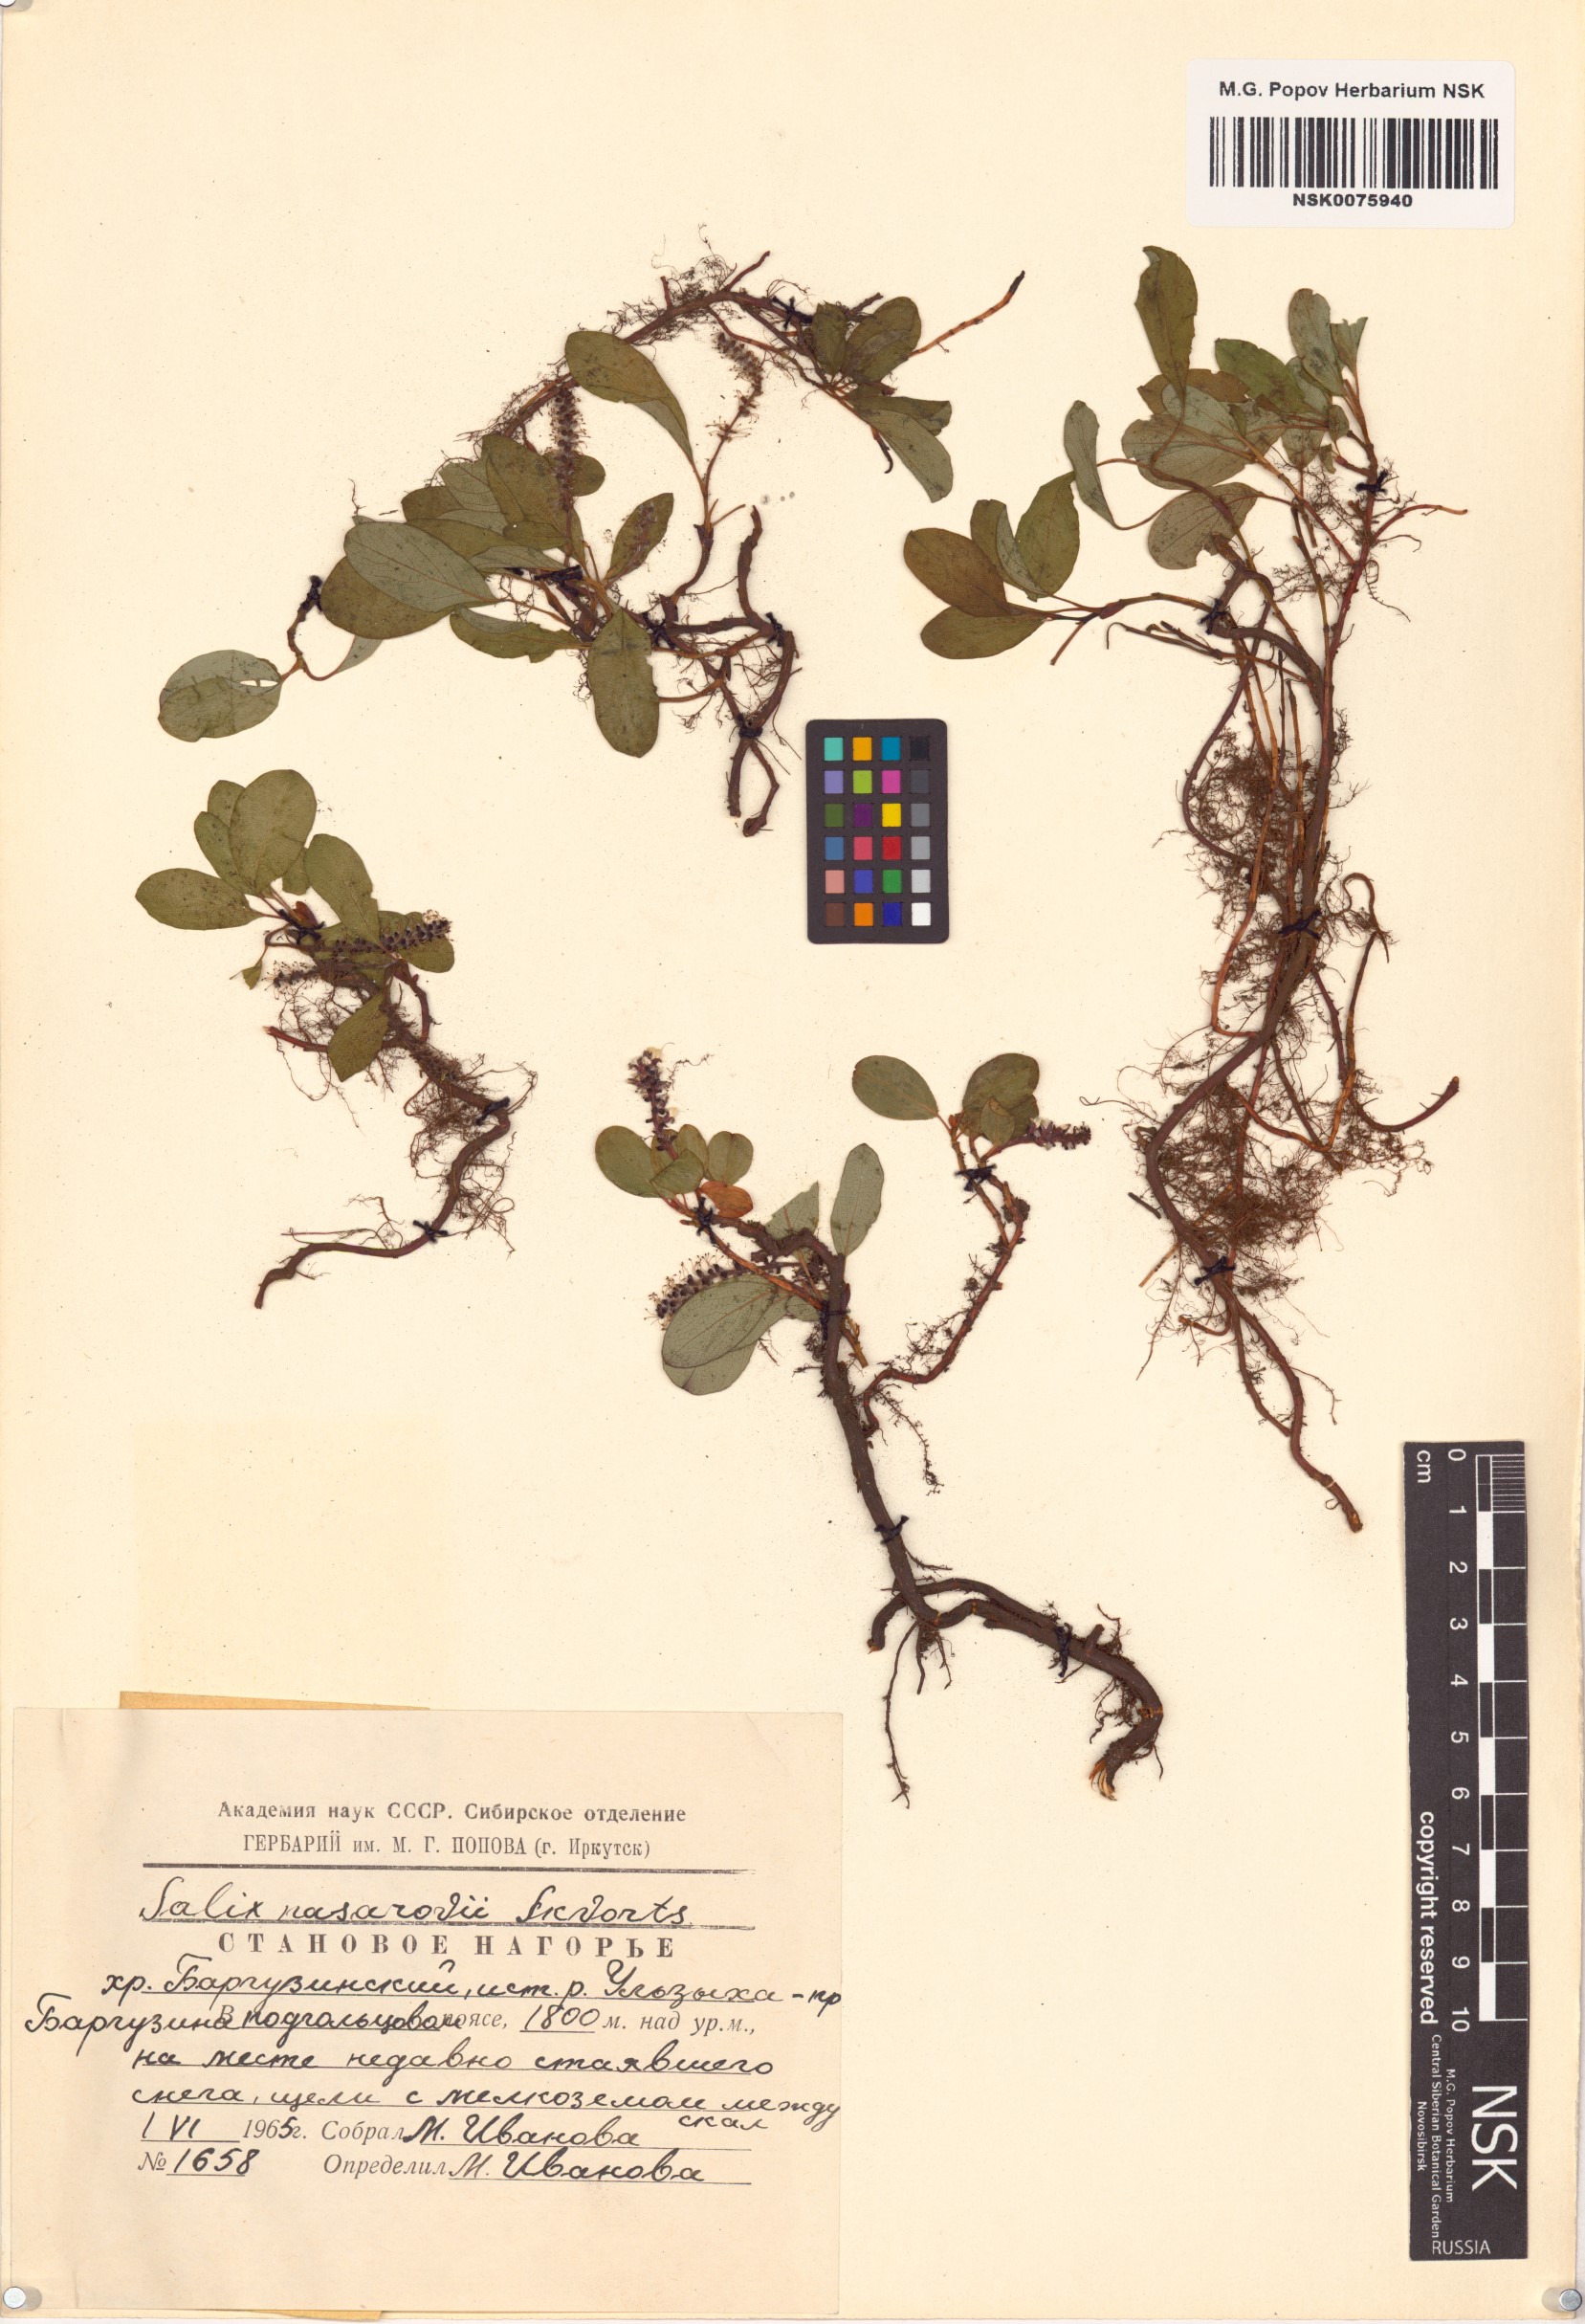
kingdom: Plantae
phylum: Tracheophyta
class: Magnoliopsida
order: Malpighiales
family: Salicaceae
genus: Salix
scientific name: Salix nasarovii
